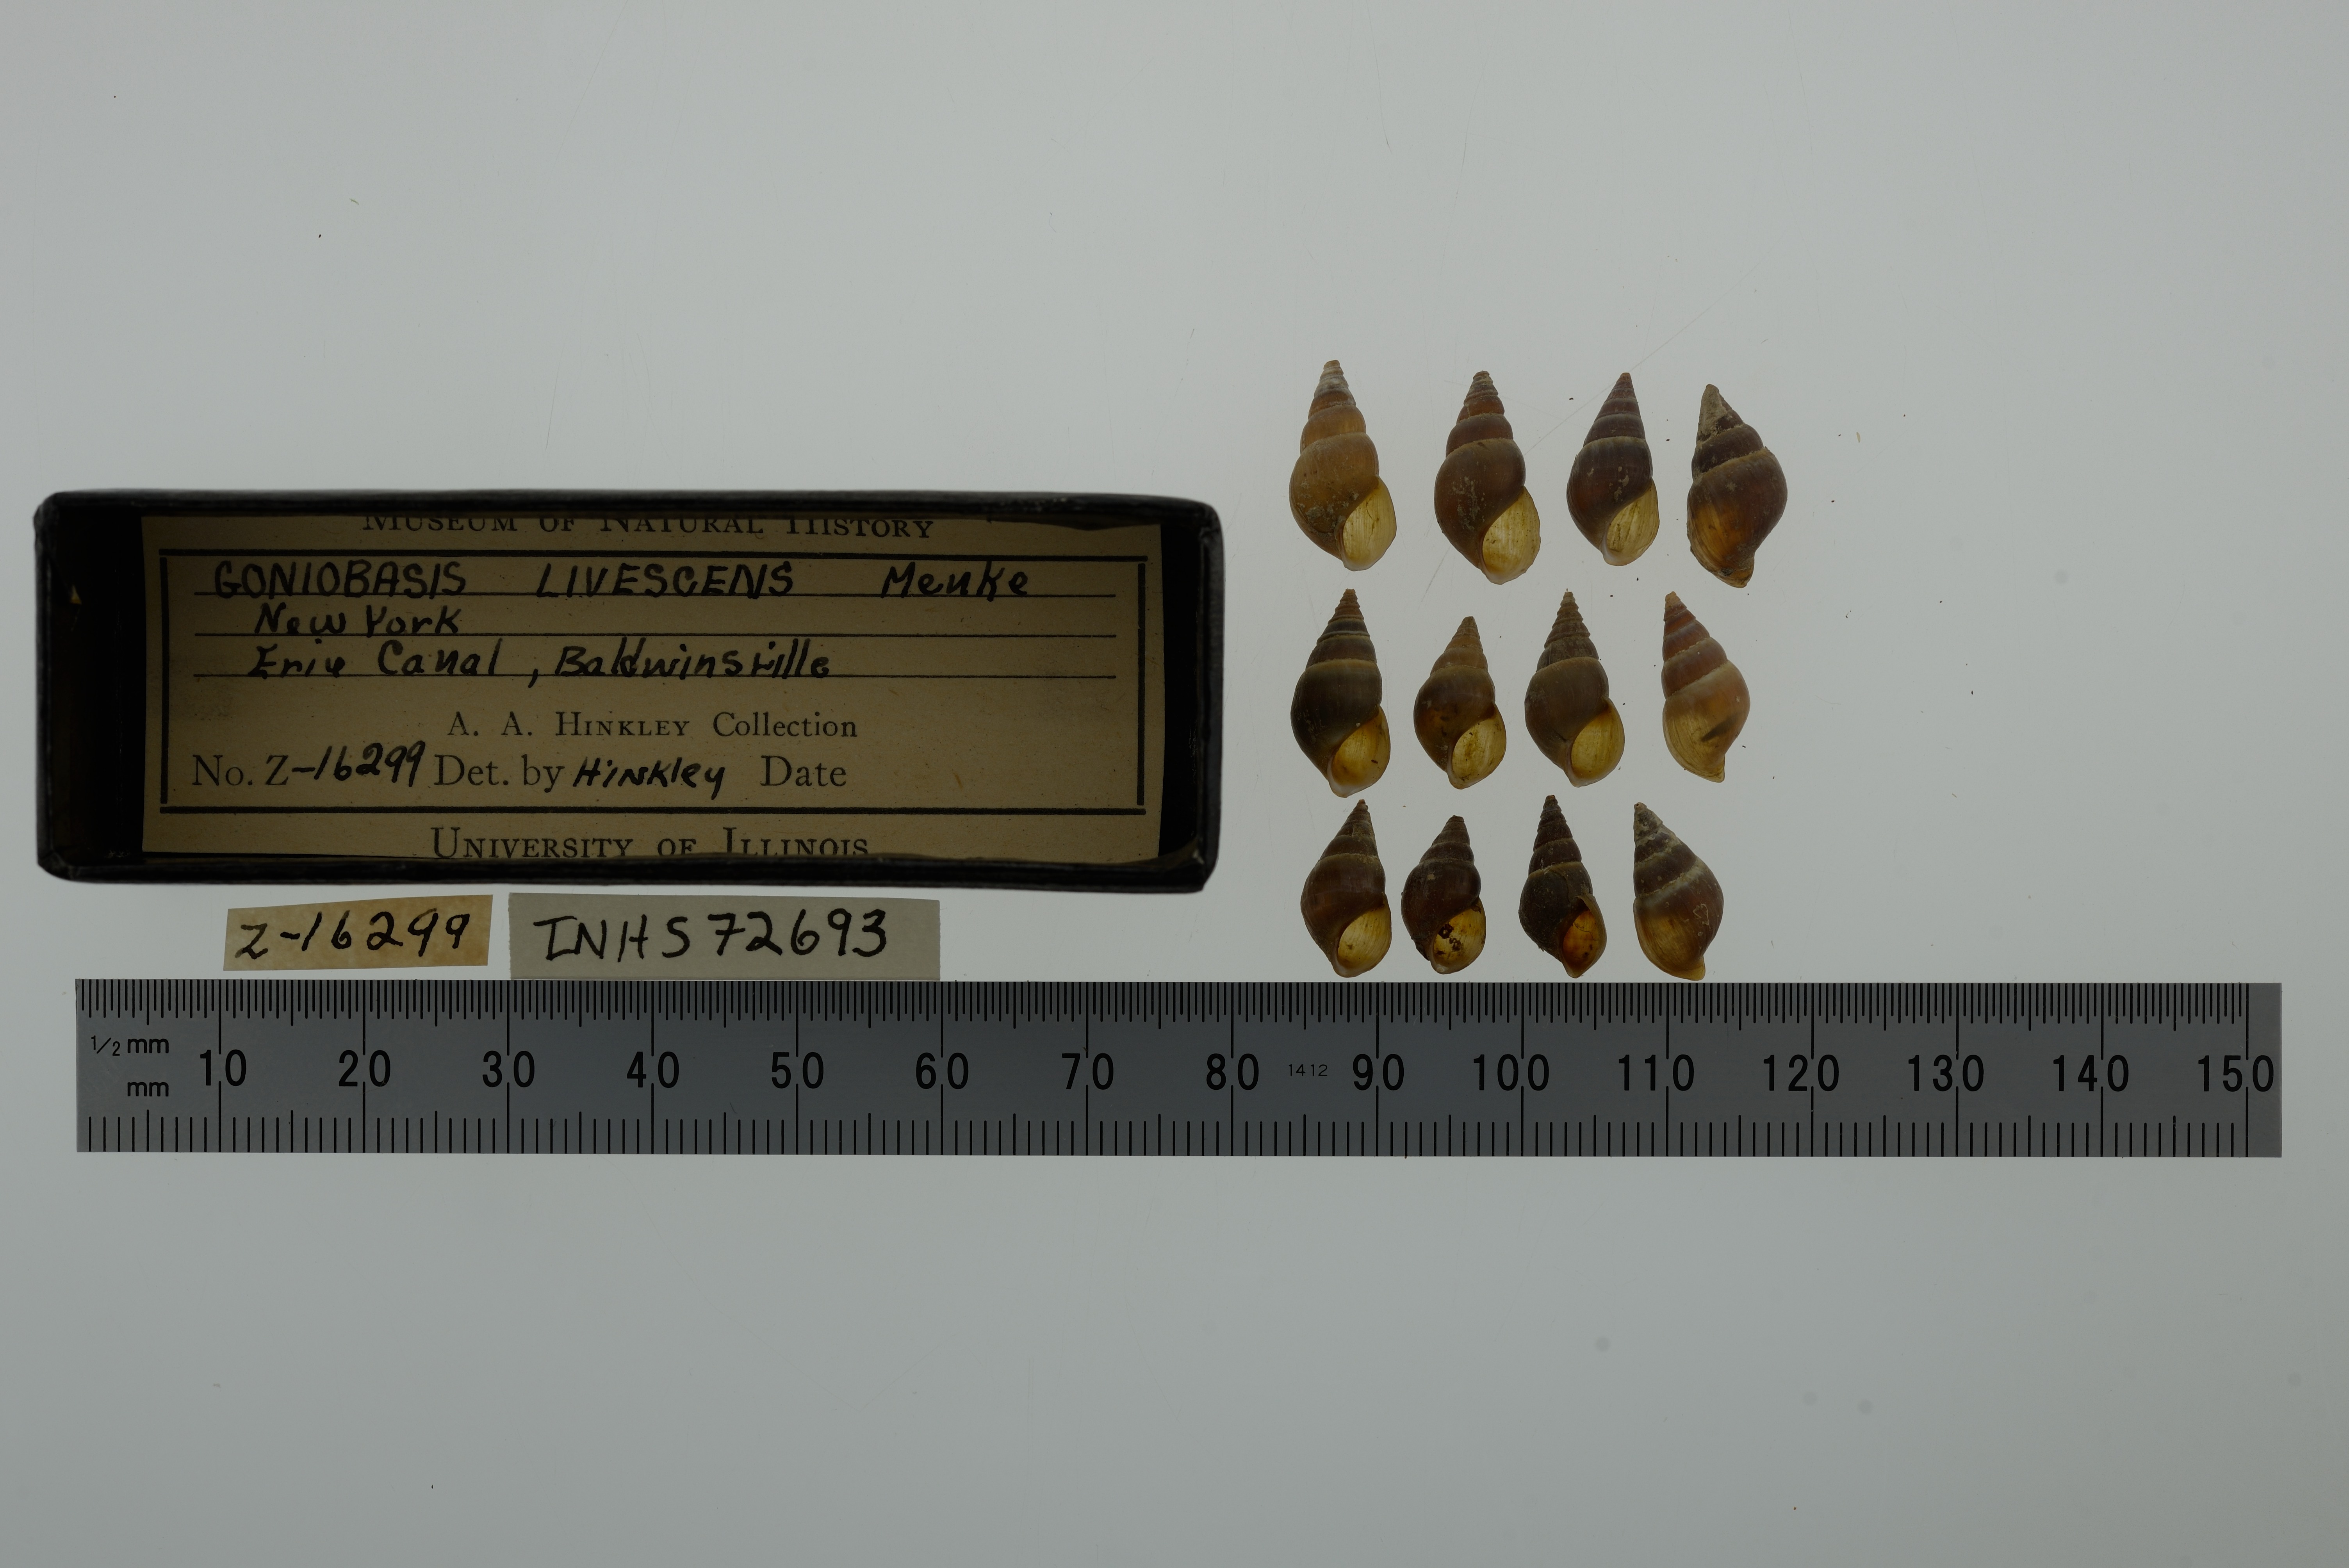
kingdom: Animalia
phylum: Mollusca
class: Gastropoda
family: Pleuroceridae
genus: Elimia
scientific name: Elimia livescens
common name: Liver elimia
